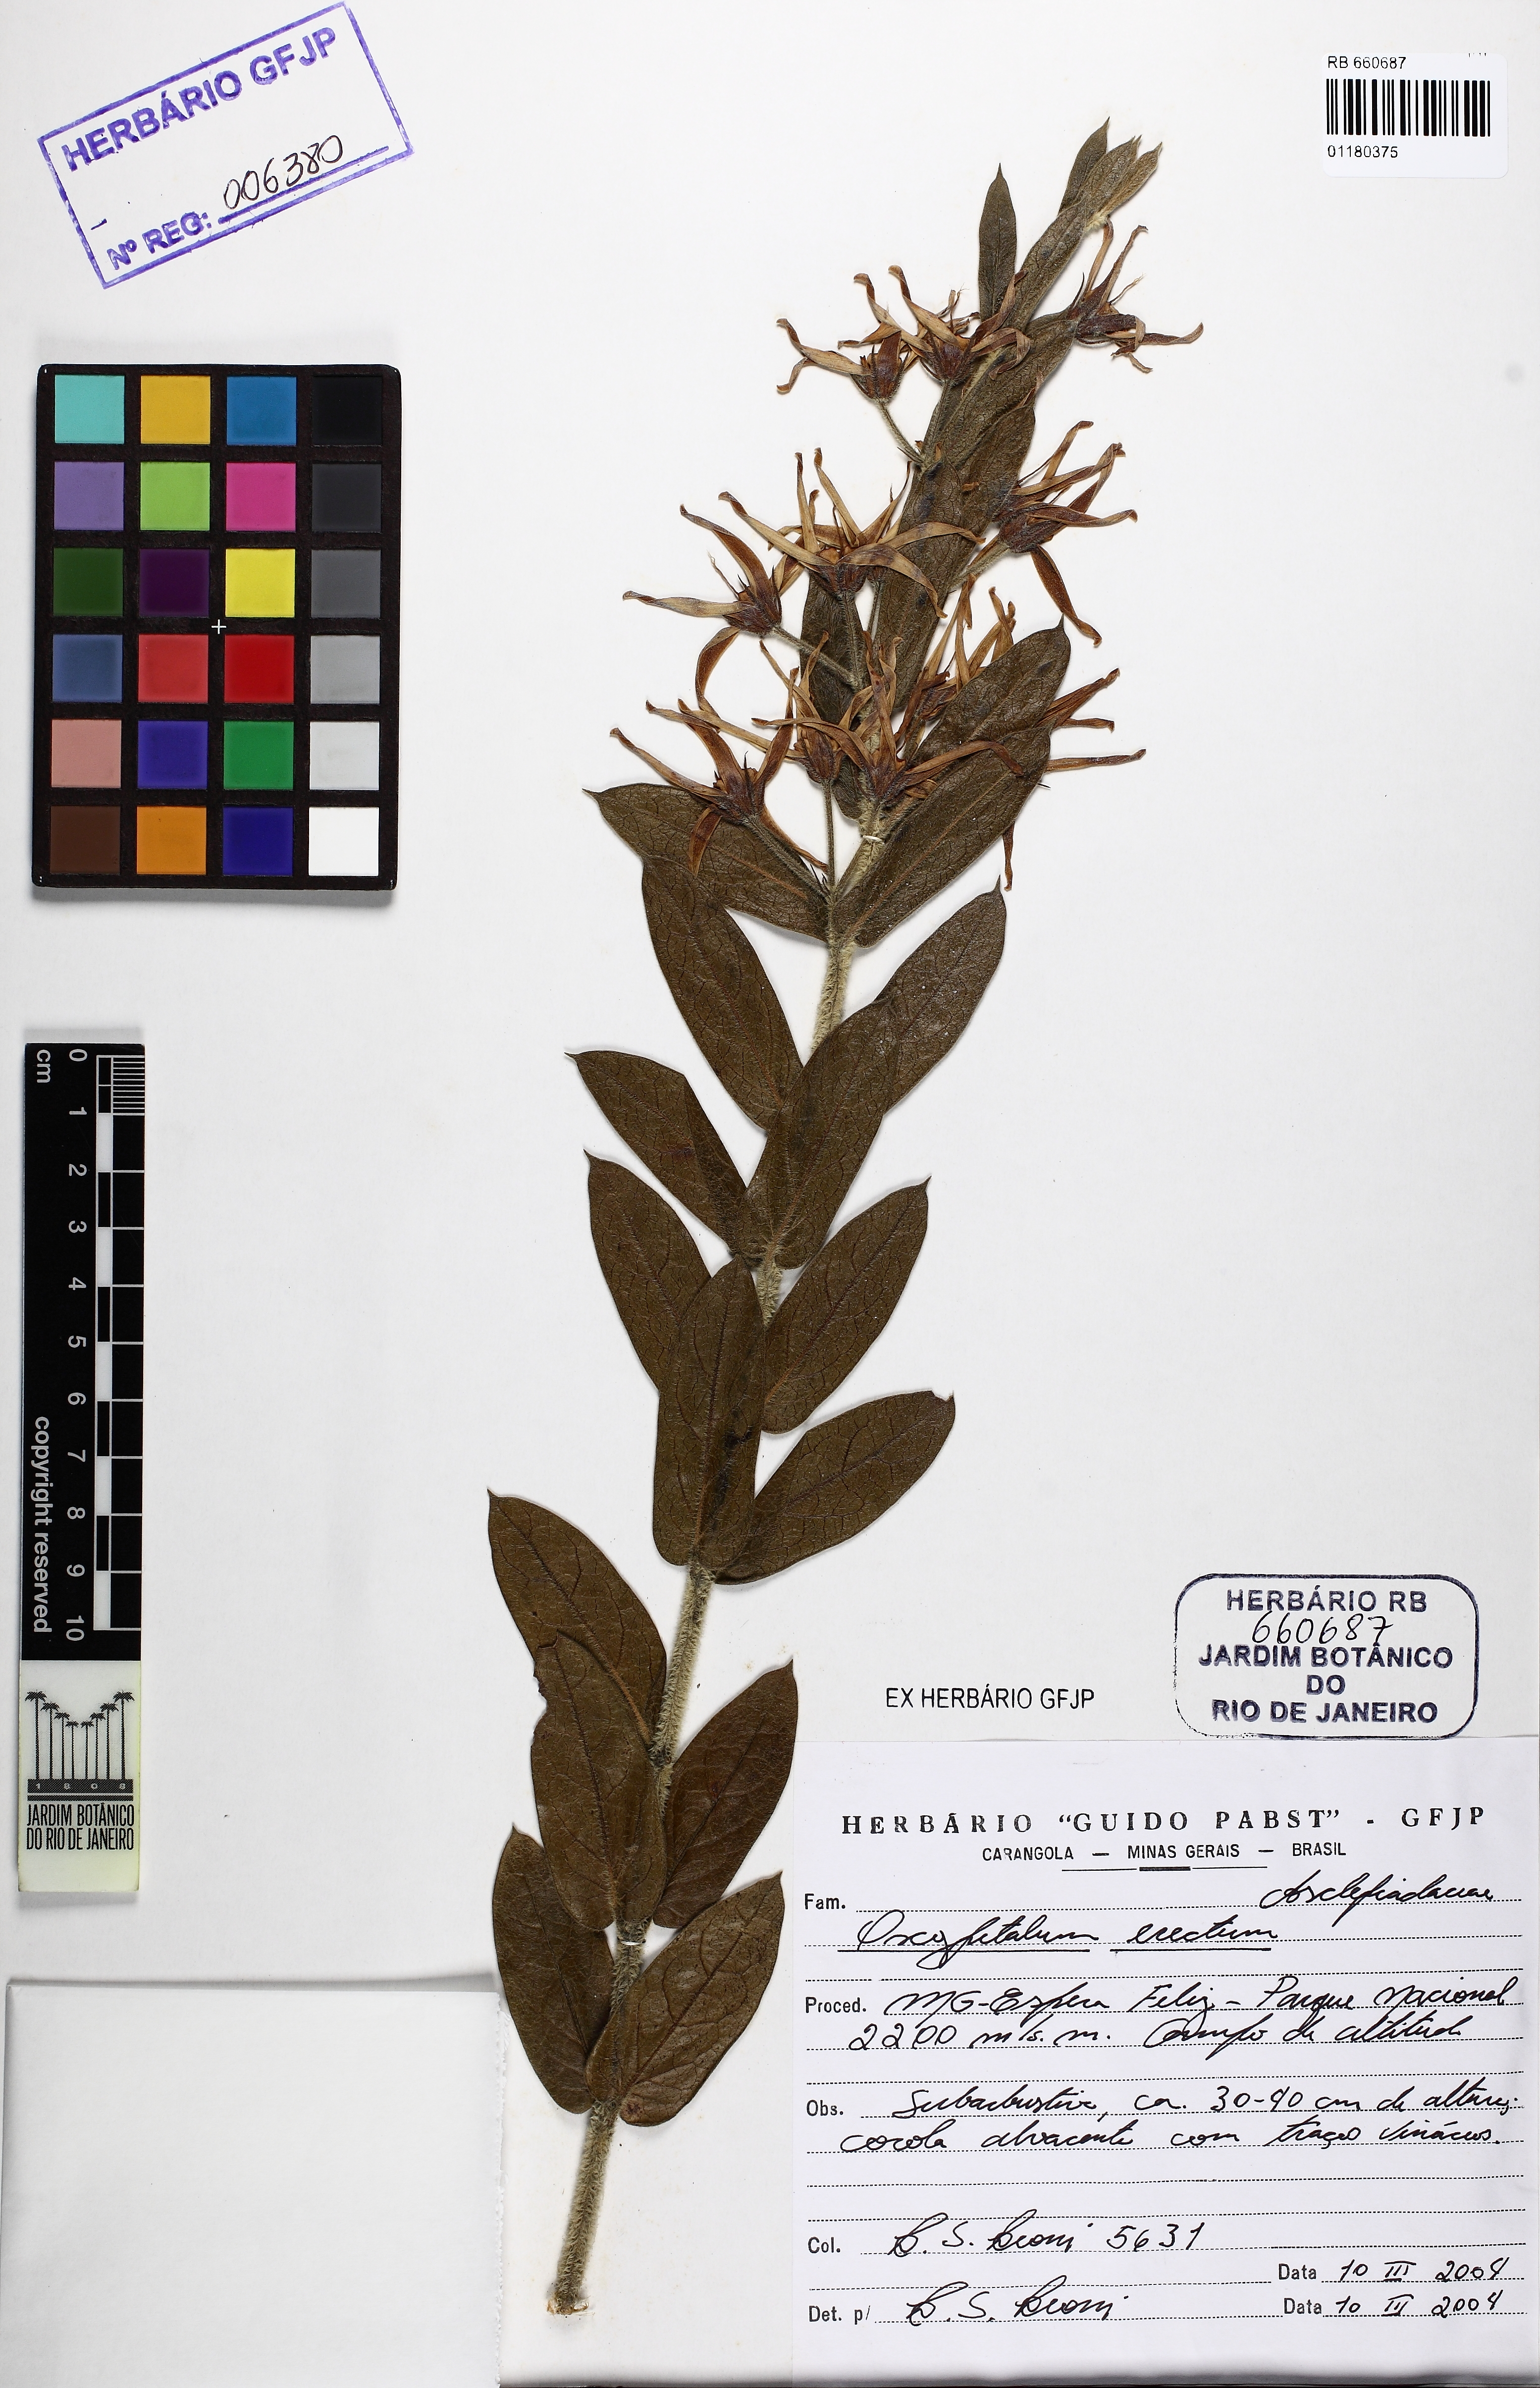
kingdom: Plantae
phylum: Tracheophyta
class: Magnoliopsida
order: Gentianales
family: Apocynaceae
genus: Oxypetalum
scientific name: Oxypetalum erectum
